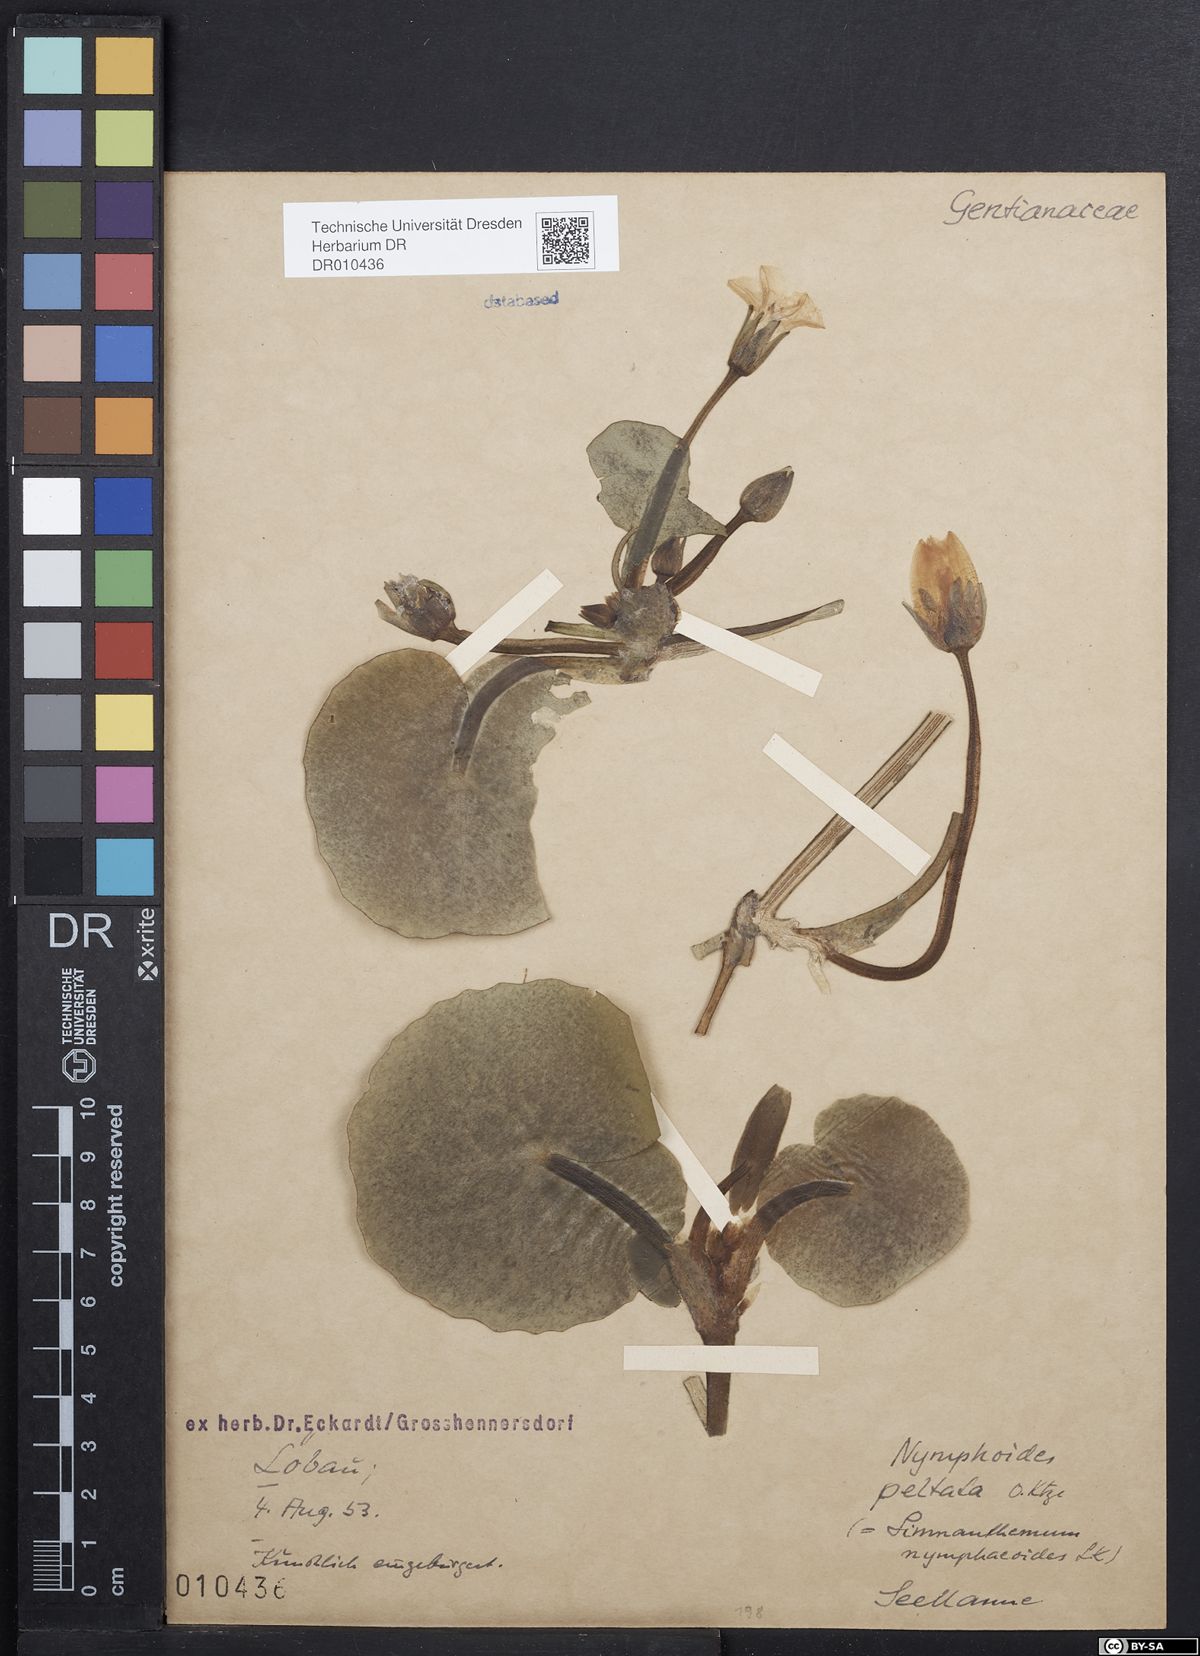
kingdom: Plantae
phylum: Tracheophyta
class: Magnoliopsida
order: Asterales
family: Menyanthaceae
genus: Nymphoides
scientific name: Nymphoides peltata
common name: Fringed water-lily
